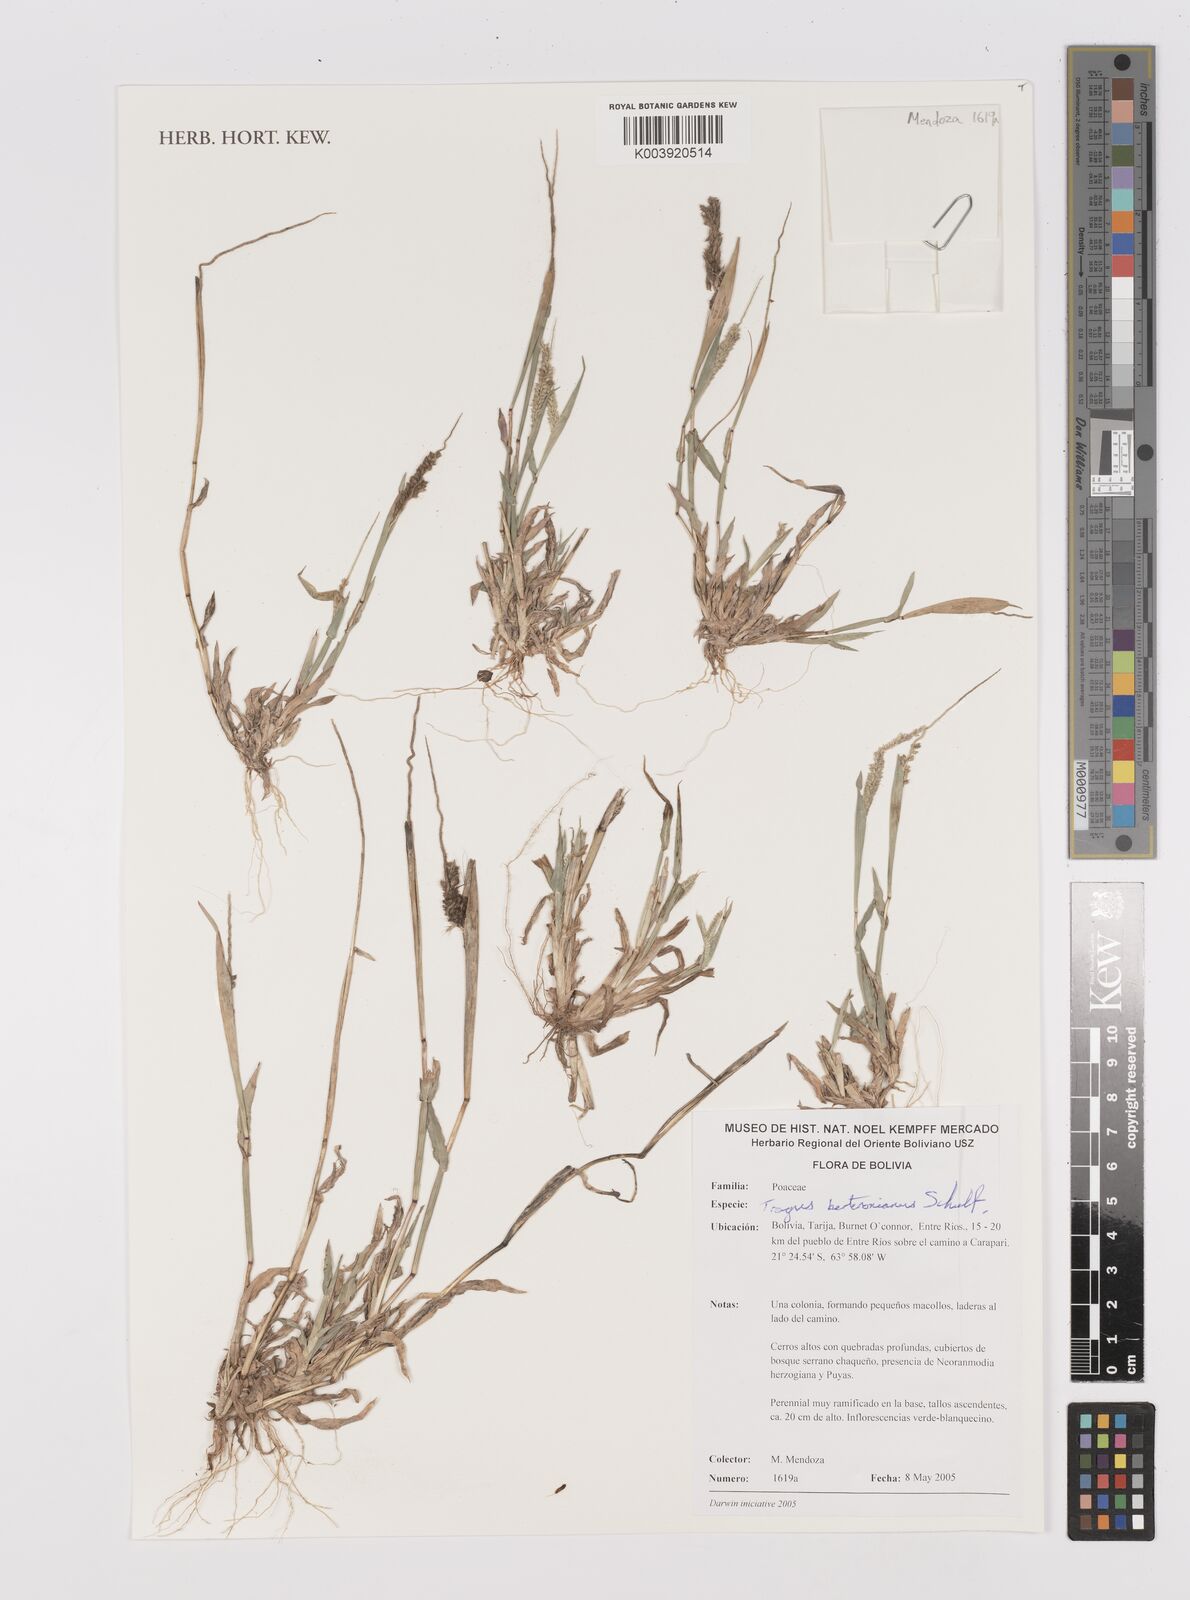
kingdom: Plantae
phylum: Tracheophyta
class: Liliopsida
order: Poales
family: Poaceae
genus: Tragus
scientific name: Tragus berteronianus
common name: African bur-grass
